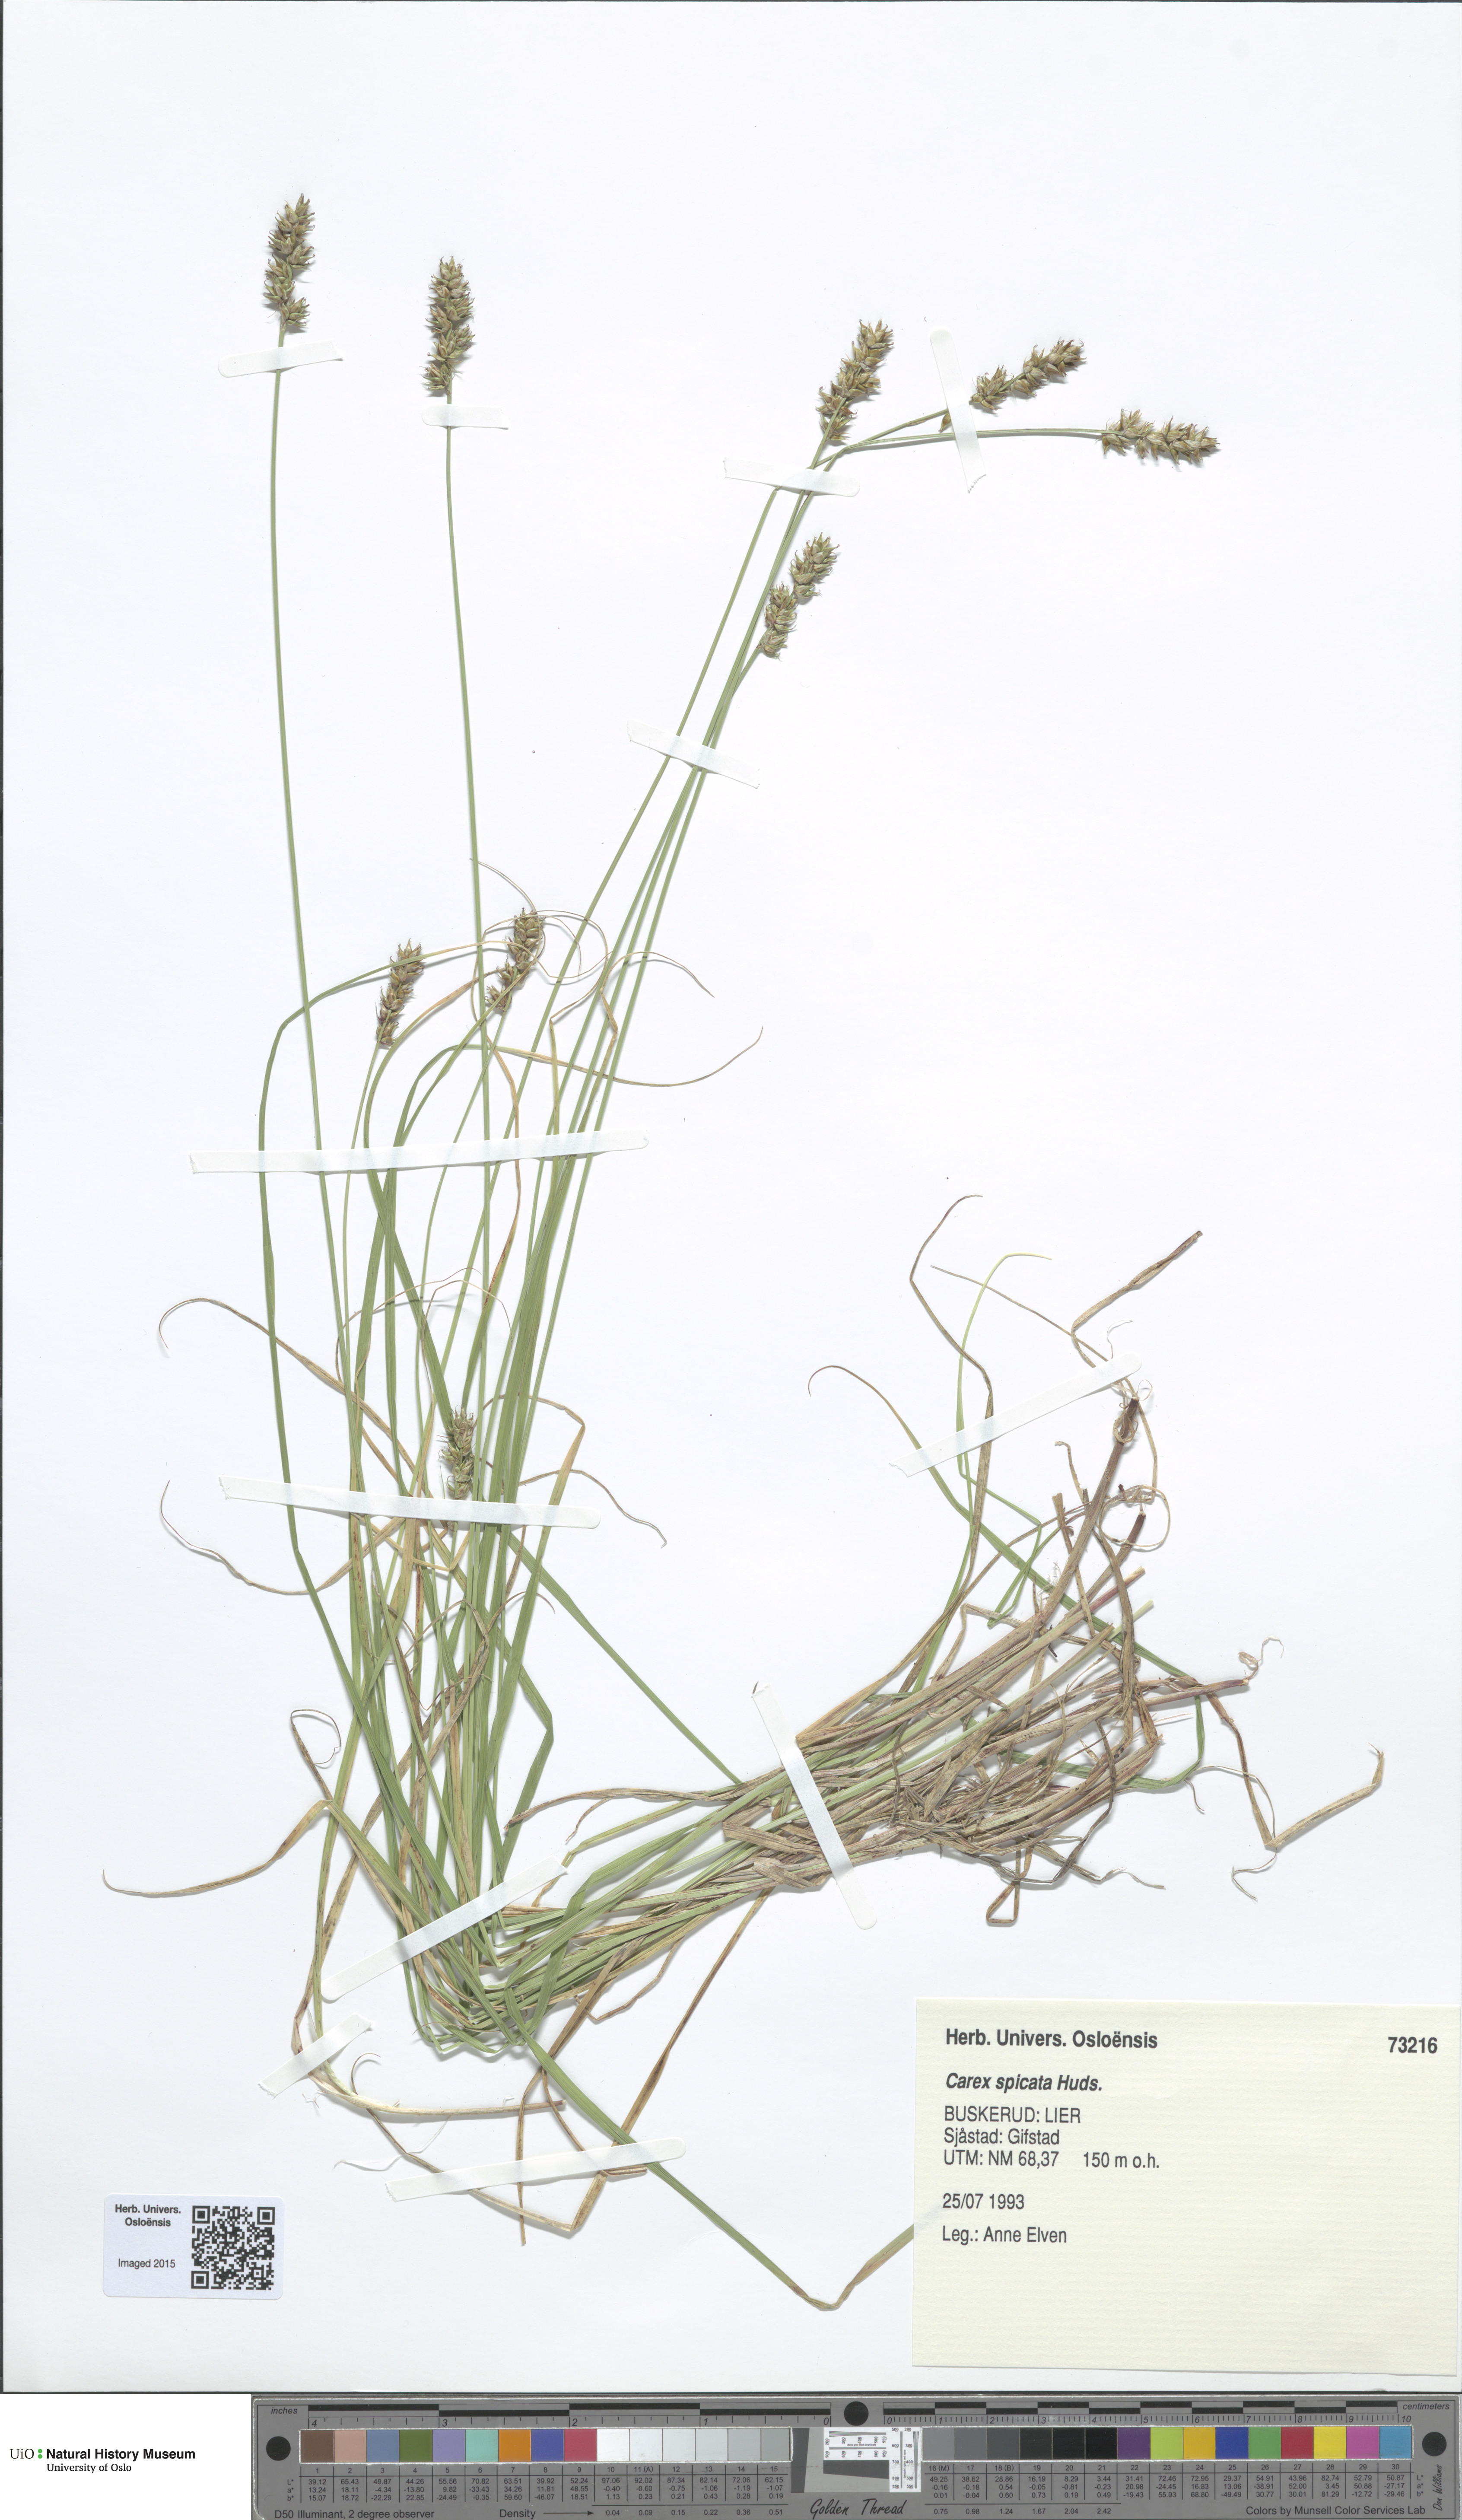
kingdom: Plantae
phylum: Tracheophyta
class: Liliopsida
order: Poales
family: Cyperaceae
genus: Carex
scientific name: Carex spicata
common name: Spiked sedge
